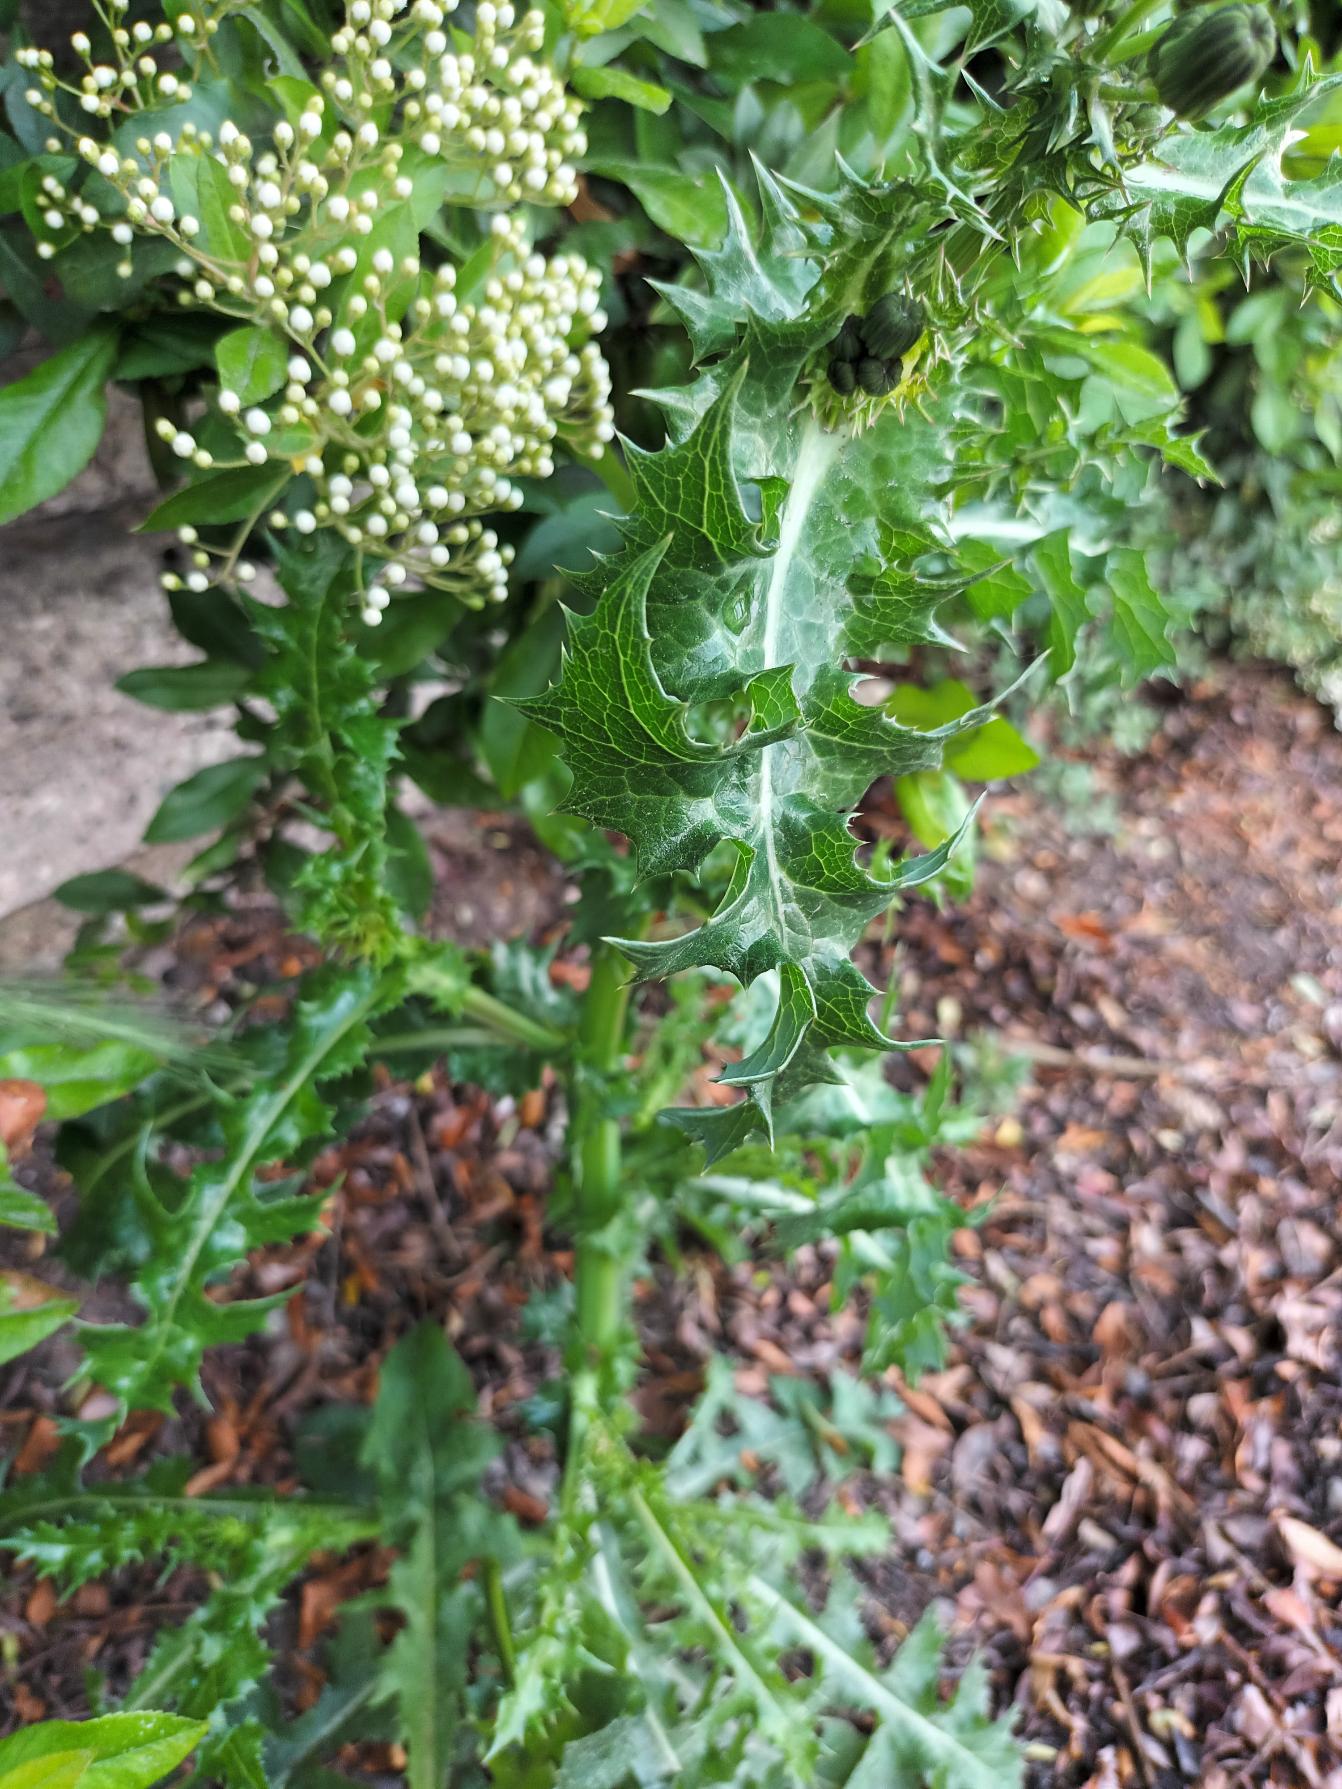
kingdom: Plantae
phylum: Tracheophyta
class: Magnoliopsida
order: Asterales
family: Asteraceae
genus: Sonchus
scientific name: Sonchus asper
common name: Ru svinemælk
